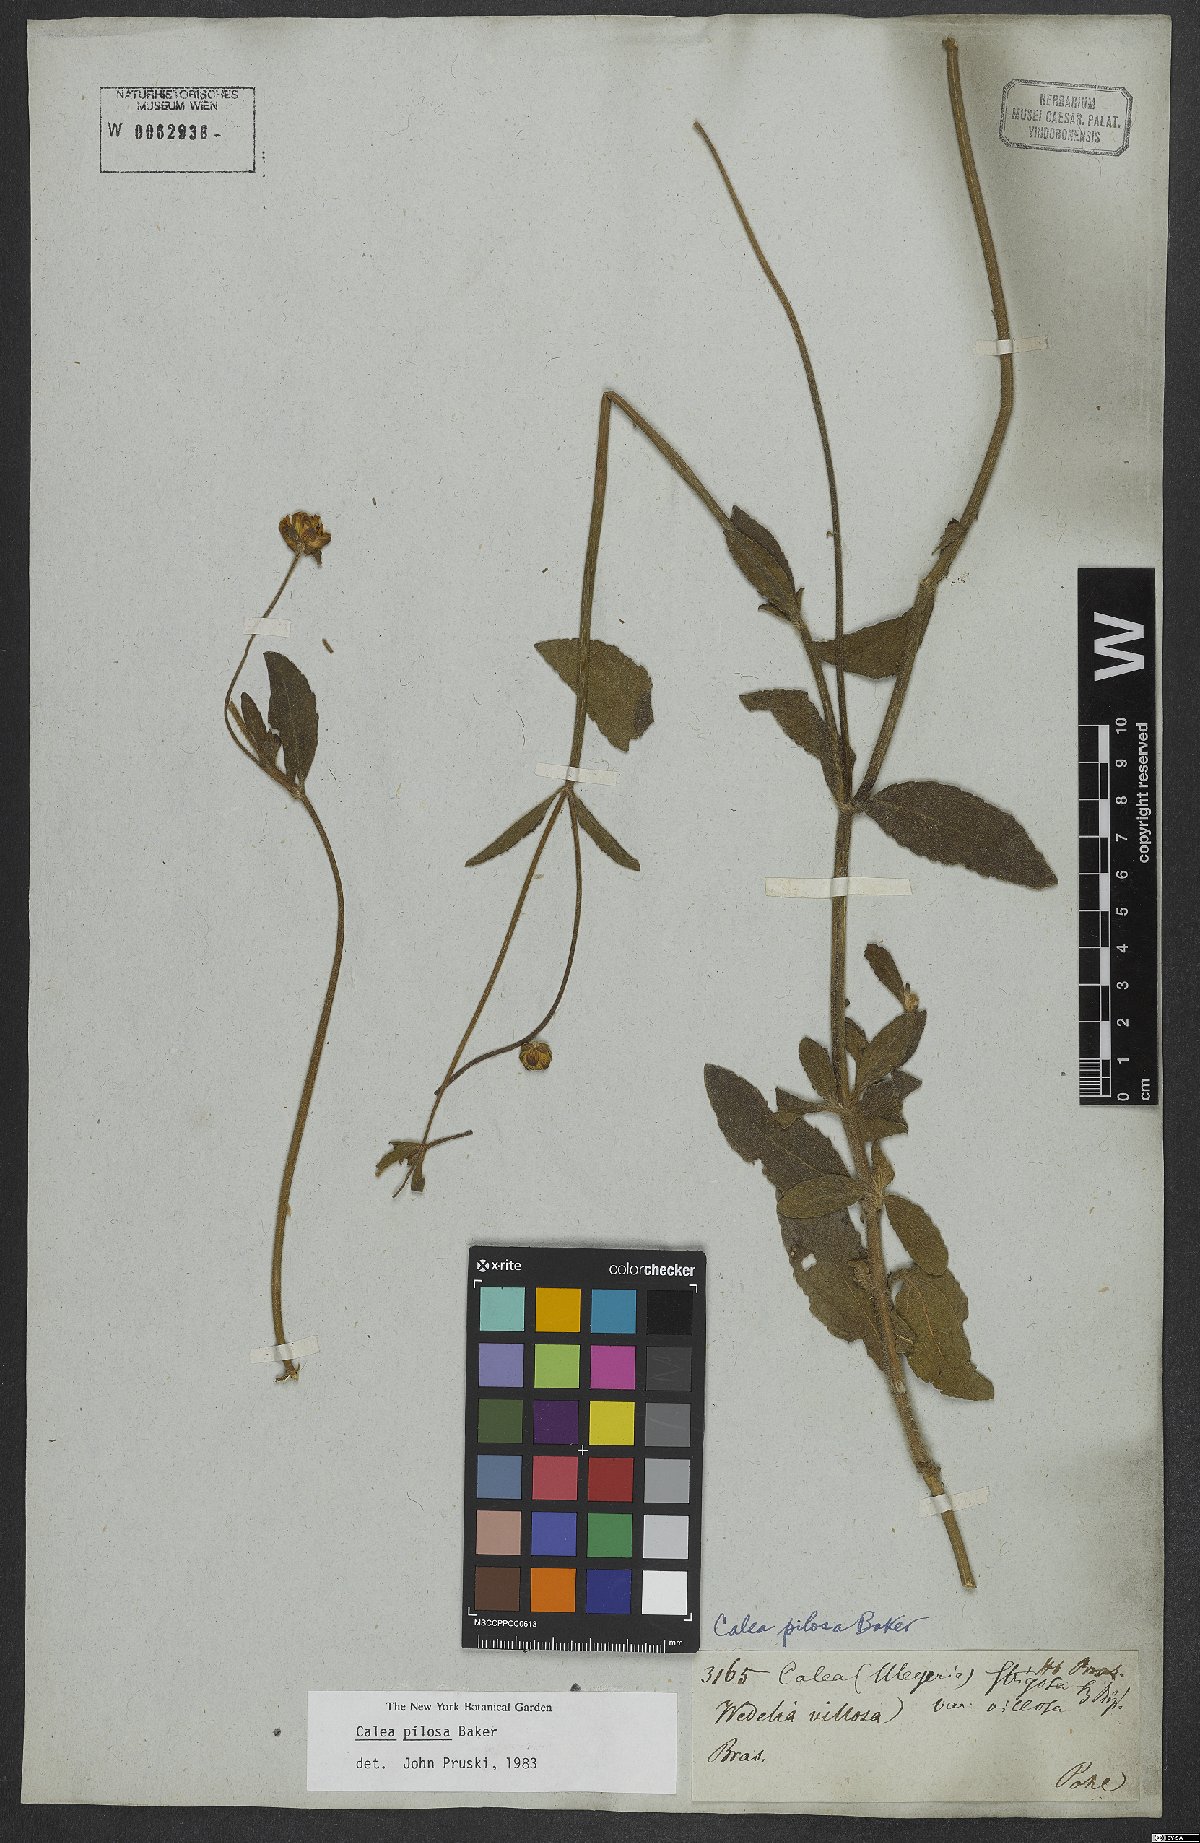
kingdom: Plantae
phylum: Tracheophyta
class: Magnoliopsida
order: Asterales
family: Asteraceae
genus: Calea
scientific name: Calea pilosa
